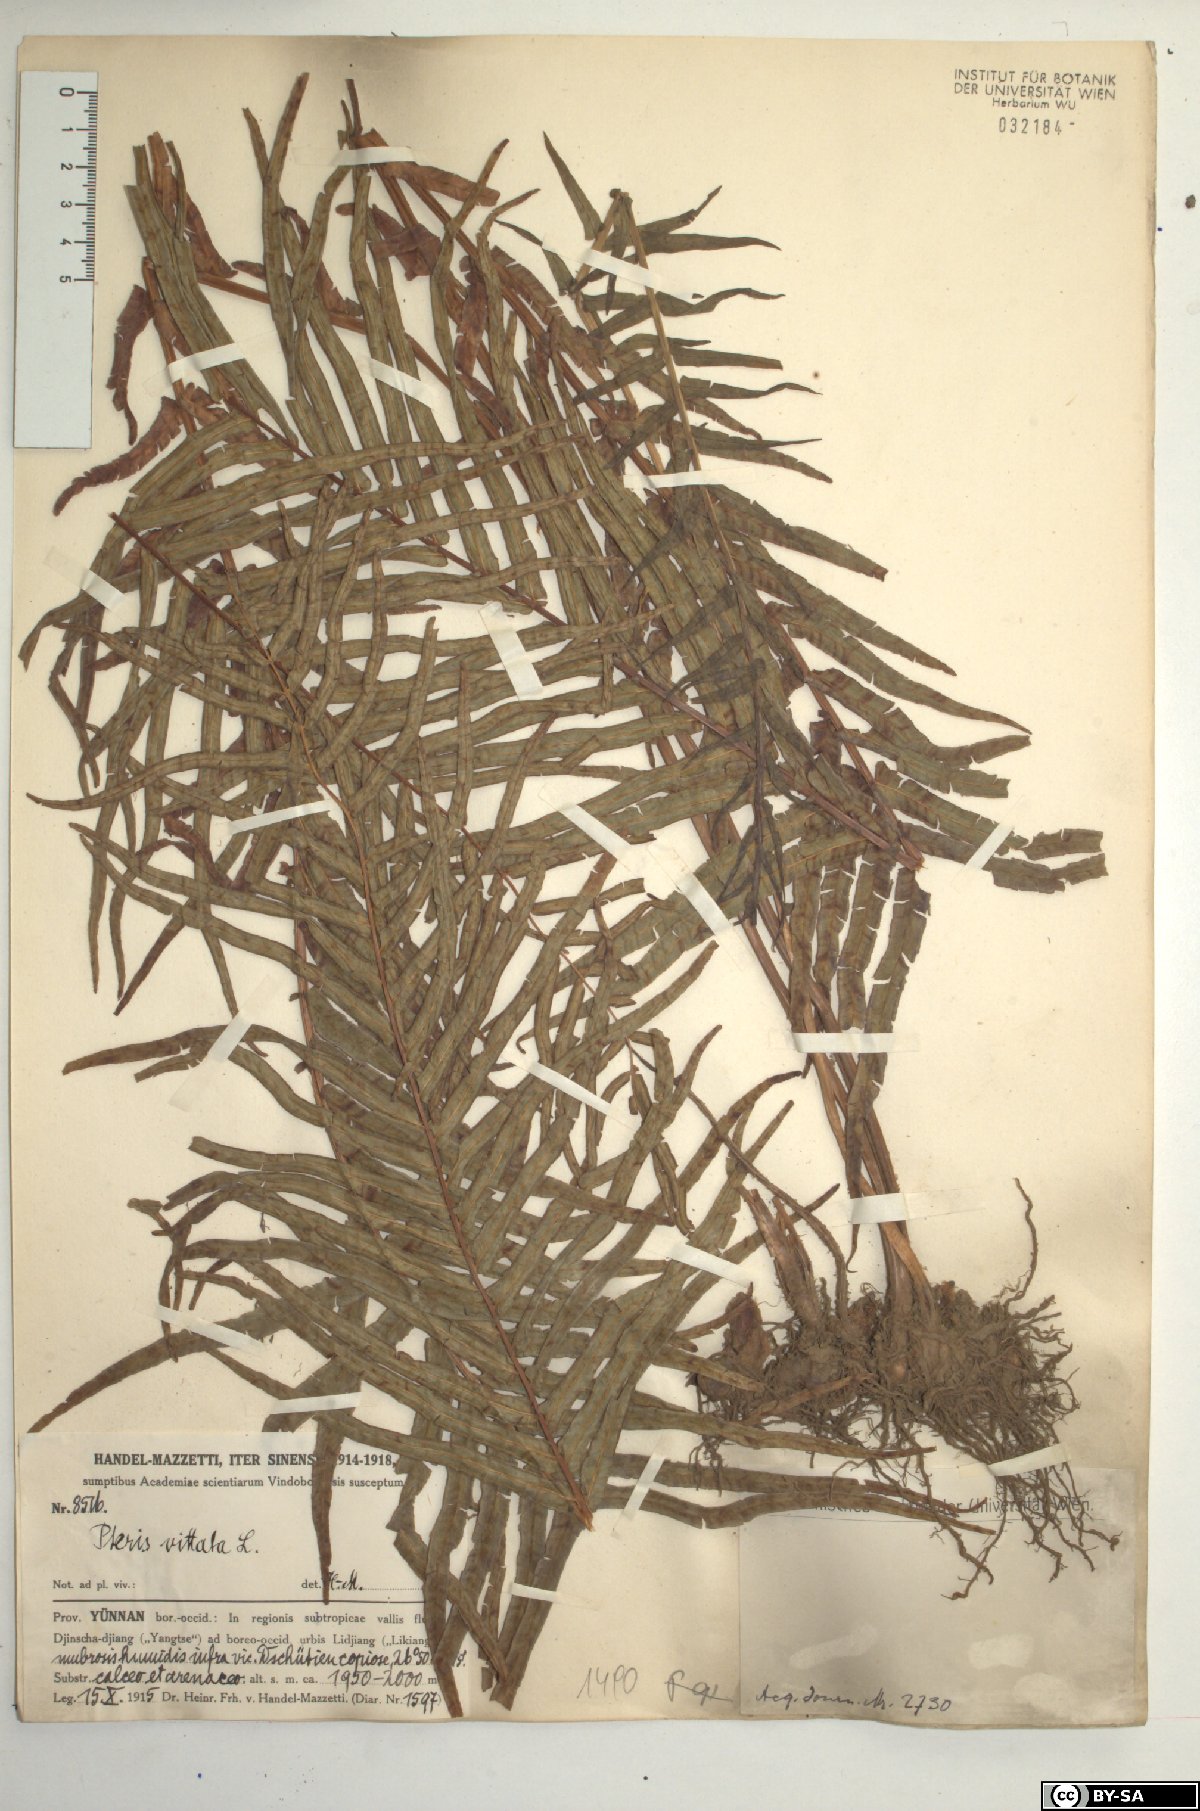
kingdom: Plantae
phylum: Tracheophyta
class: Polypodiopsida
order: Polypodiales
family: Pteridaceae
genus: Pteris
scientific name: Pteris vittata
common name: Ladder brake
